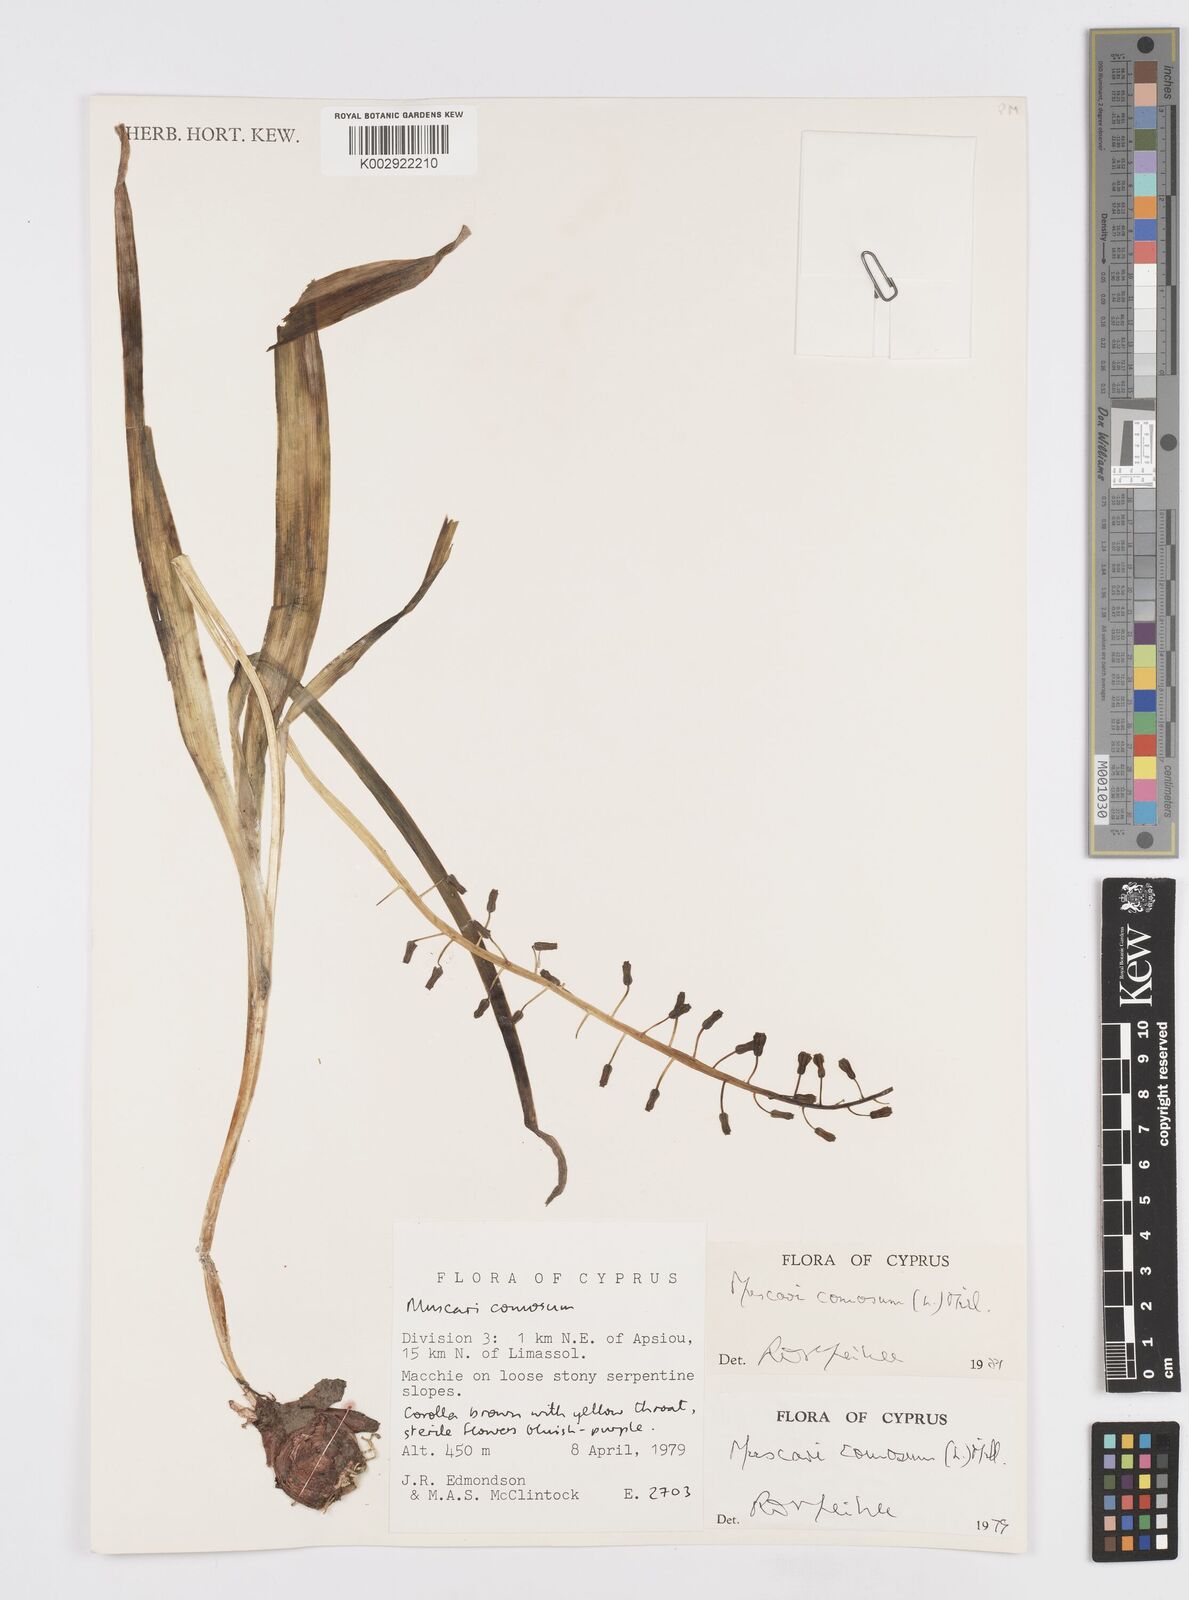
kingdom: Plantae
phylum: Tracheophyta
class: Liliopsida
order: Asparagales
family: Asparagaceae
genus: Muscari
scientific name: Muscari comosum
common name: Tassel hyacinth
